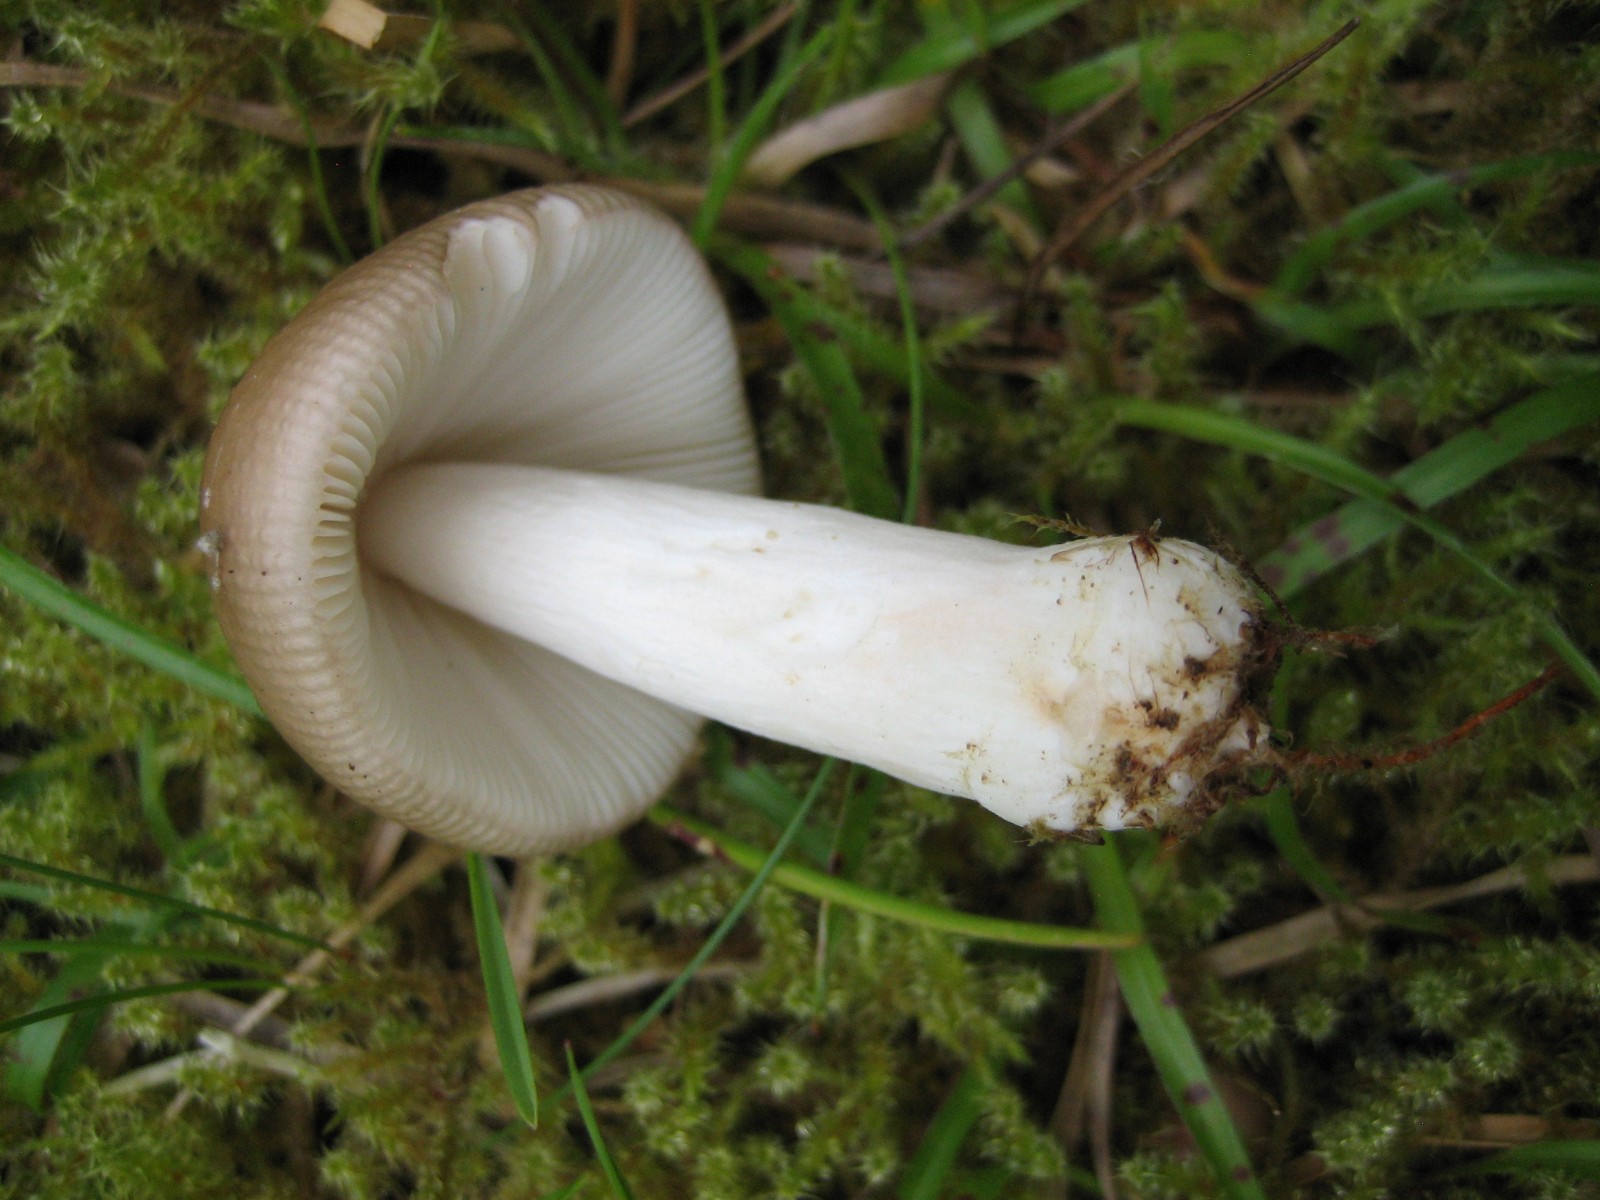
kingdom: Fungi
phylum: Basidiomycota
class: Agaricomycetes
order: Russulales
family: Russulaceae
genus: Russula
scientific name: Russula
